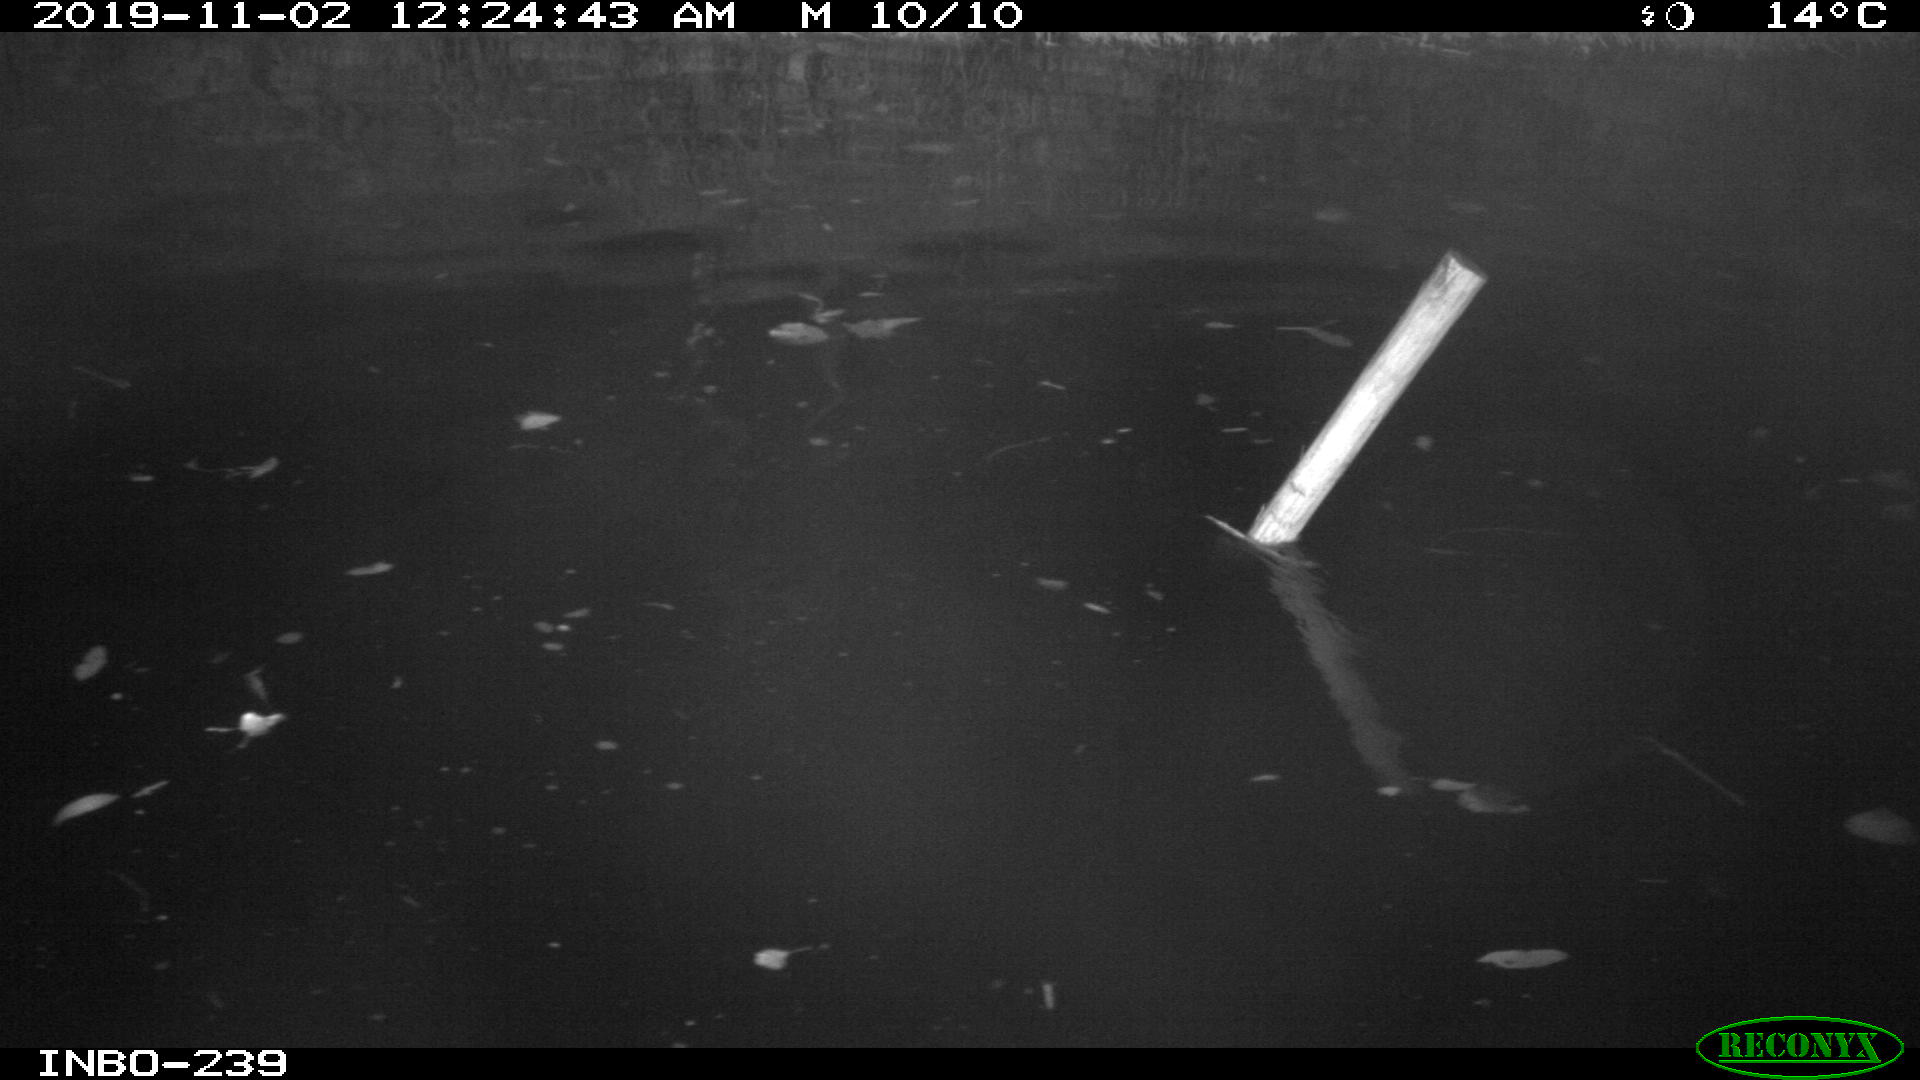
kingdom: Animalia
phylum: Chordata
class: Aves
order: Anseriformes
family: Anatidae
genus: Anas
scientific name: Anas platyrhynchos
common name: Mallard
